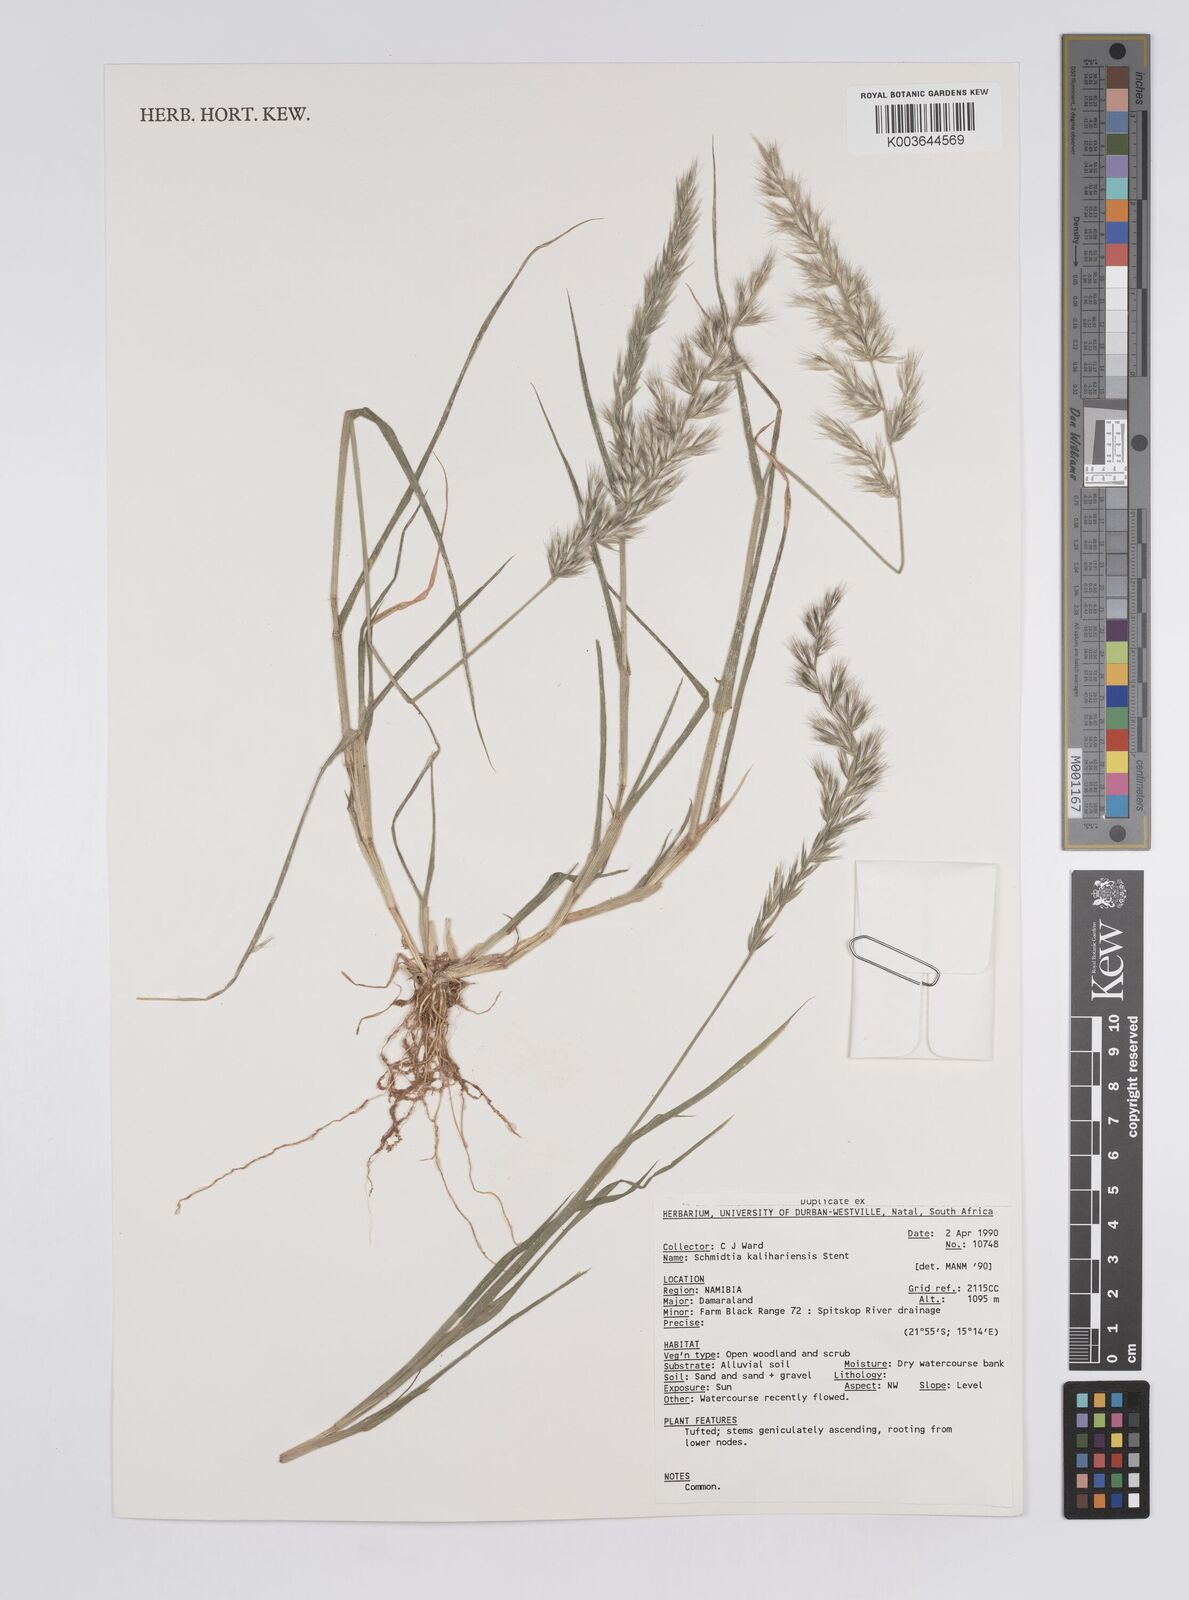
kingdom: Plantae
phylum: Tracheophyta
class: Liliopsida
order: Poales
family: Poaceae
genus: Schmidtia
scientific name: Schmidtia kalahariensis
